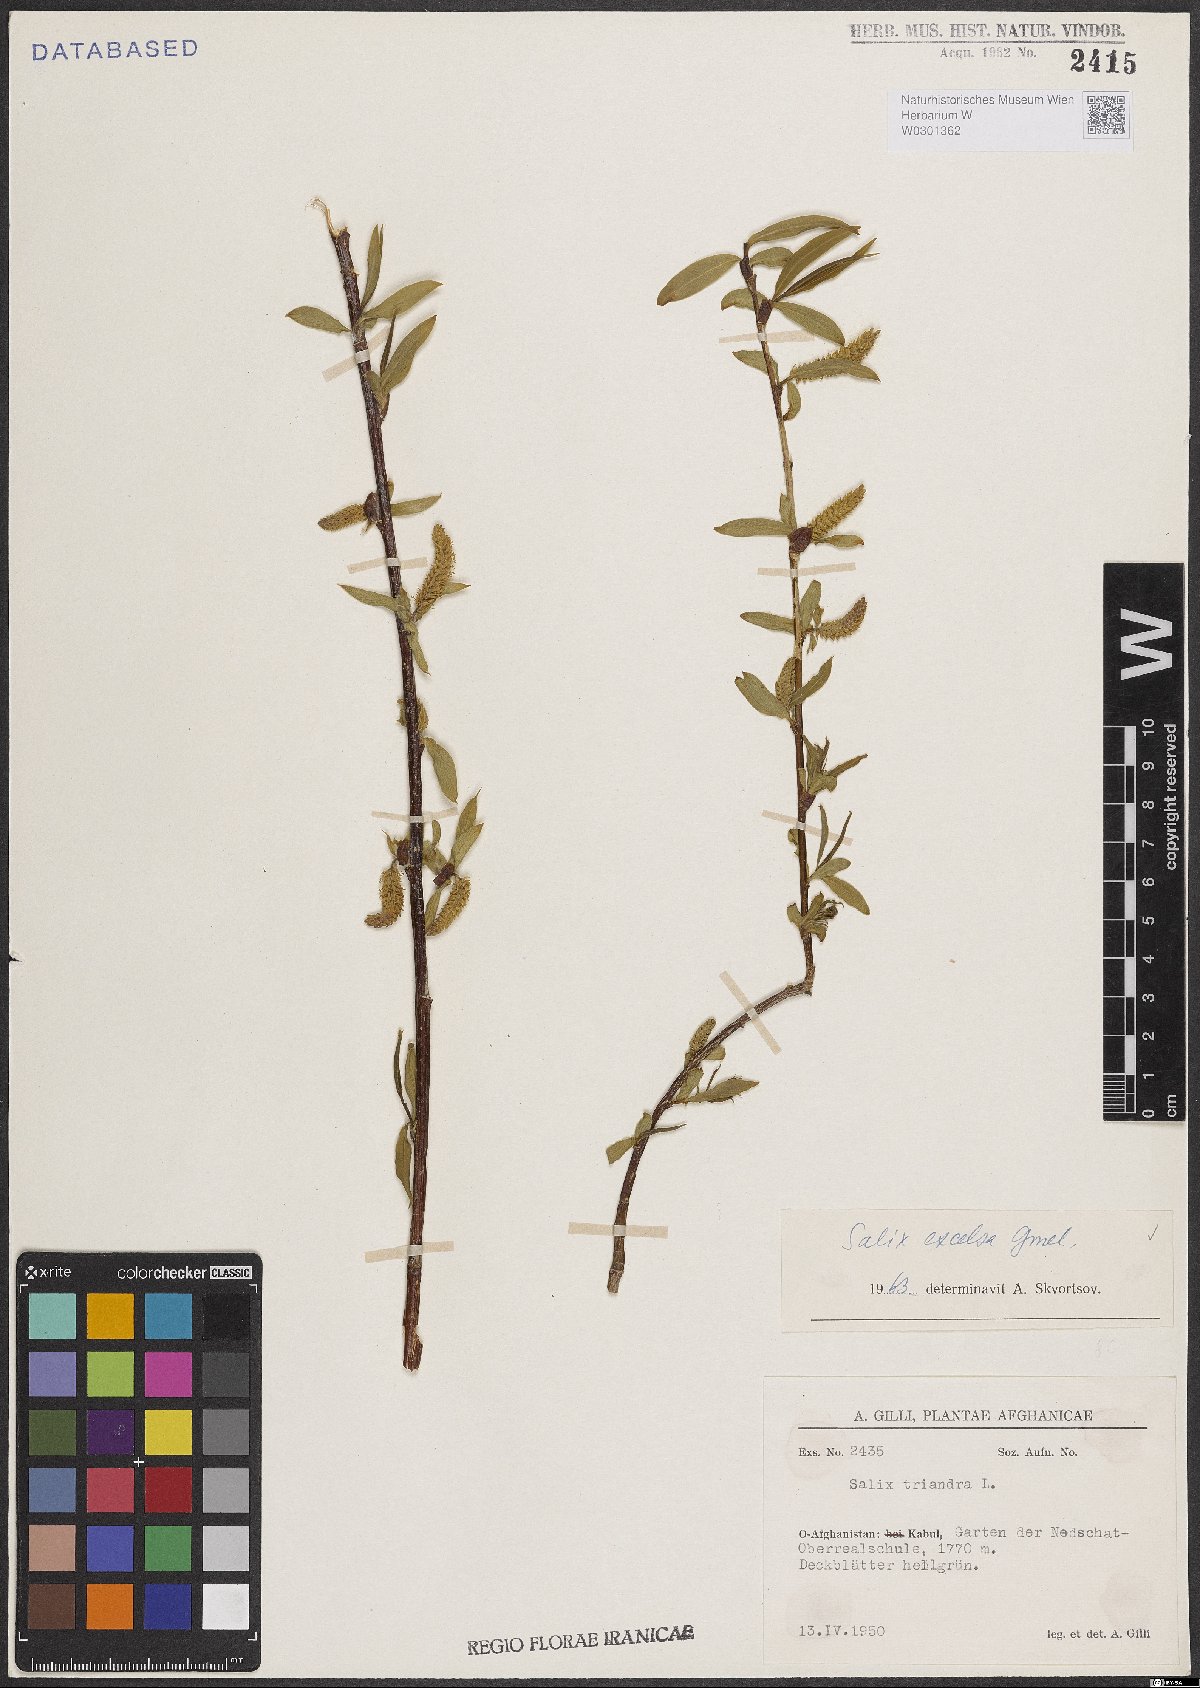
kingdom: Plantae
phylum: Tracheophyta
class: Magnoliopsida
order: Malpighiales
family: Salicaceae
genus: Salix
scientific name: Salix excelsa
